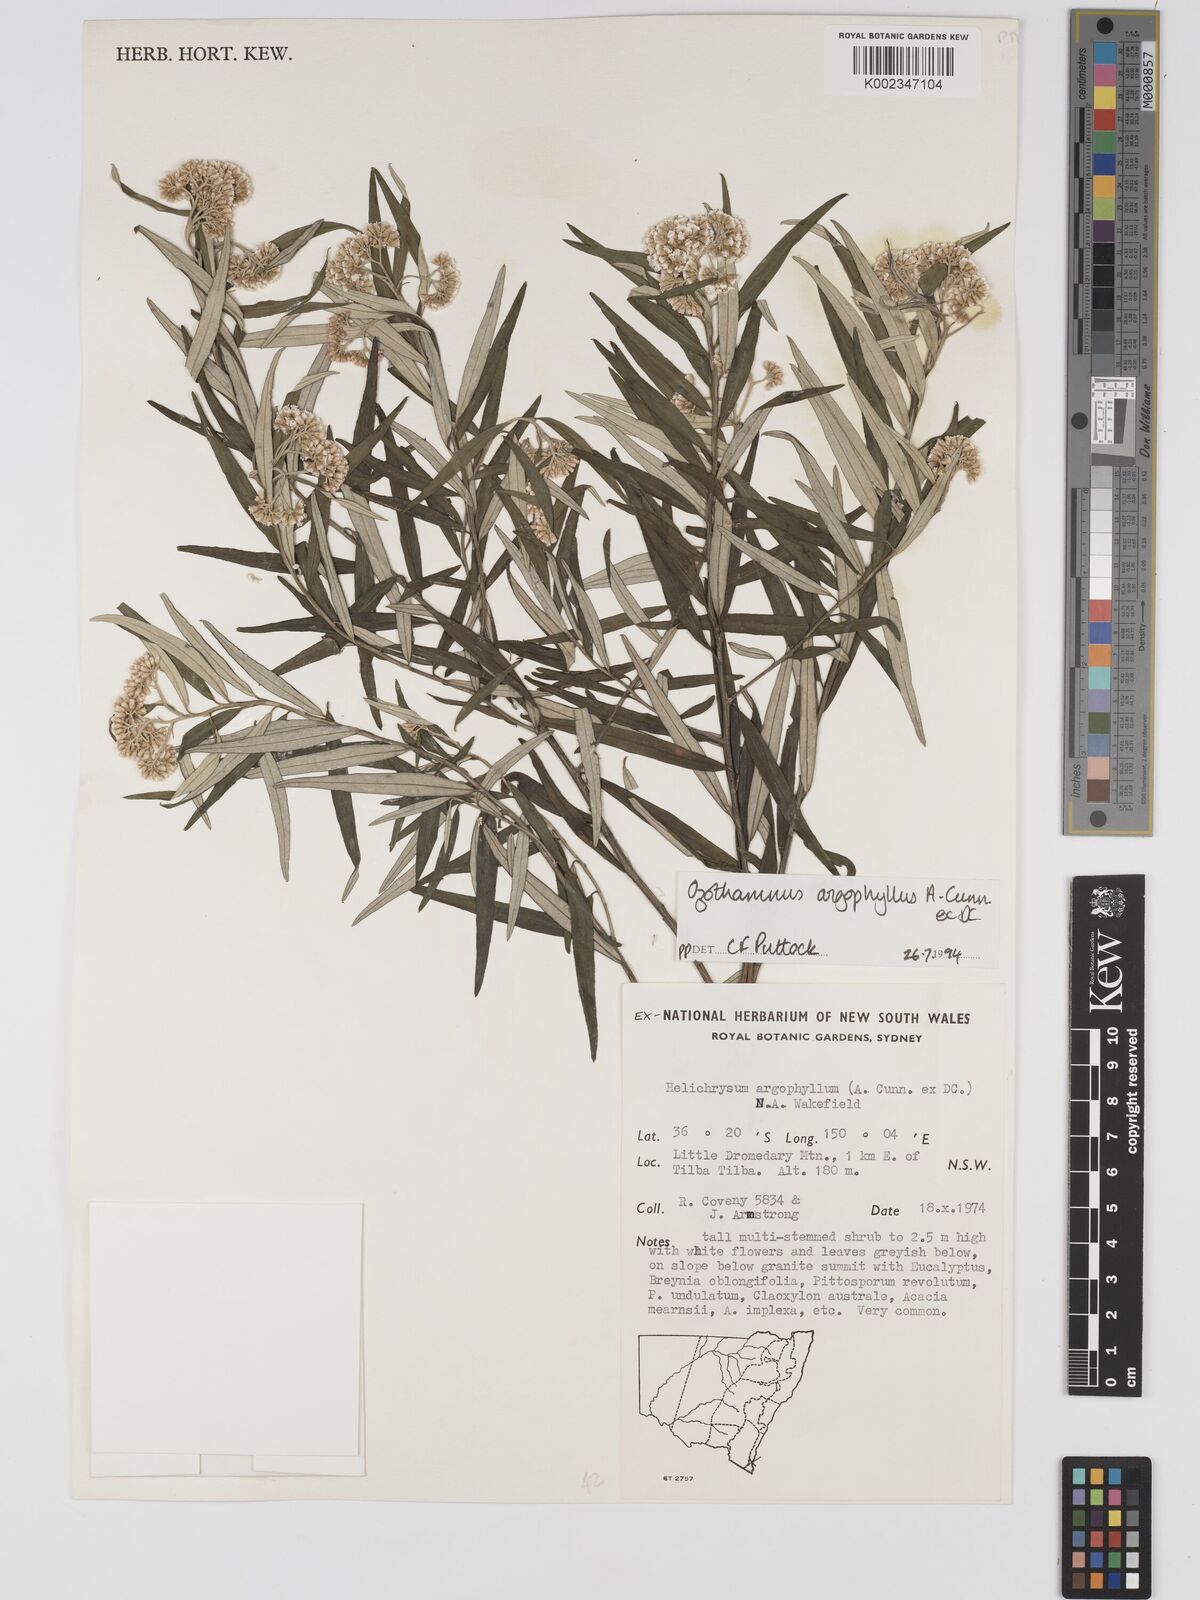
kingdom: Plantae
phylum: Tracheophyta
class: Magnoliopsida
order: Asterales
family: Asteraceae
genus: Ozothamnus
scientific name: Ozothamnus argophyllus
